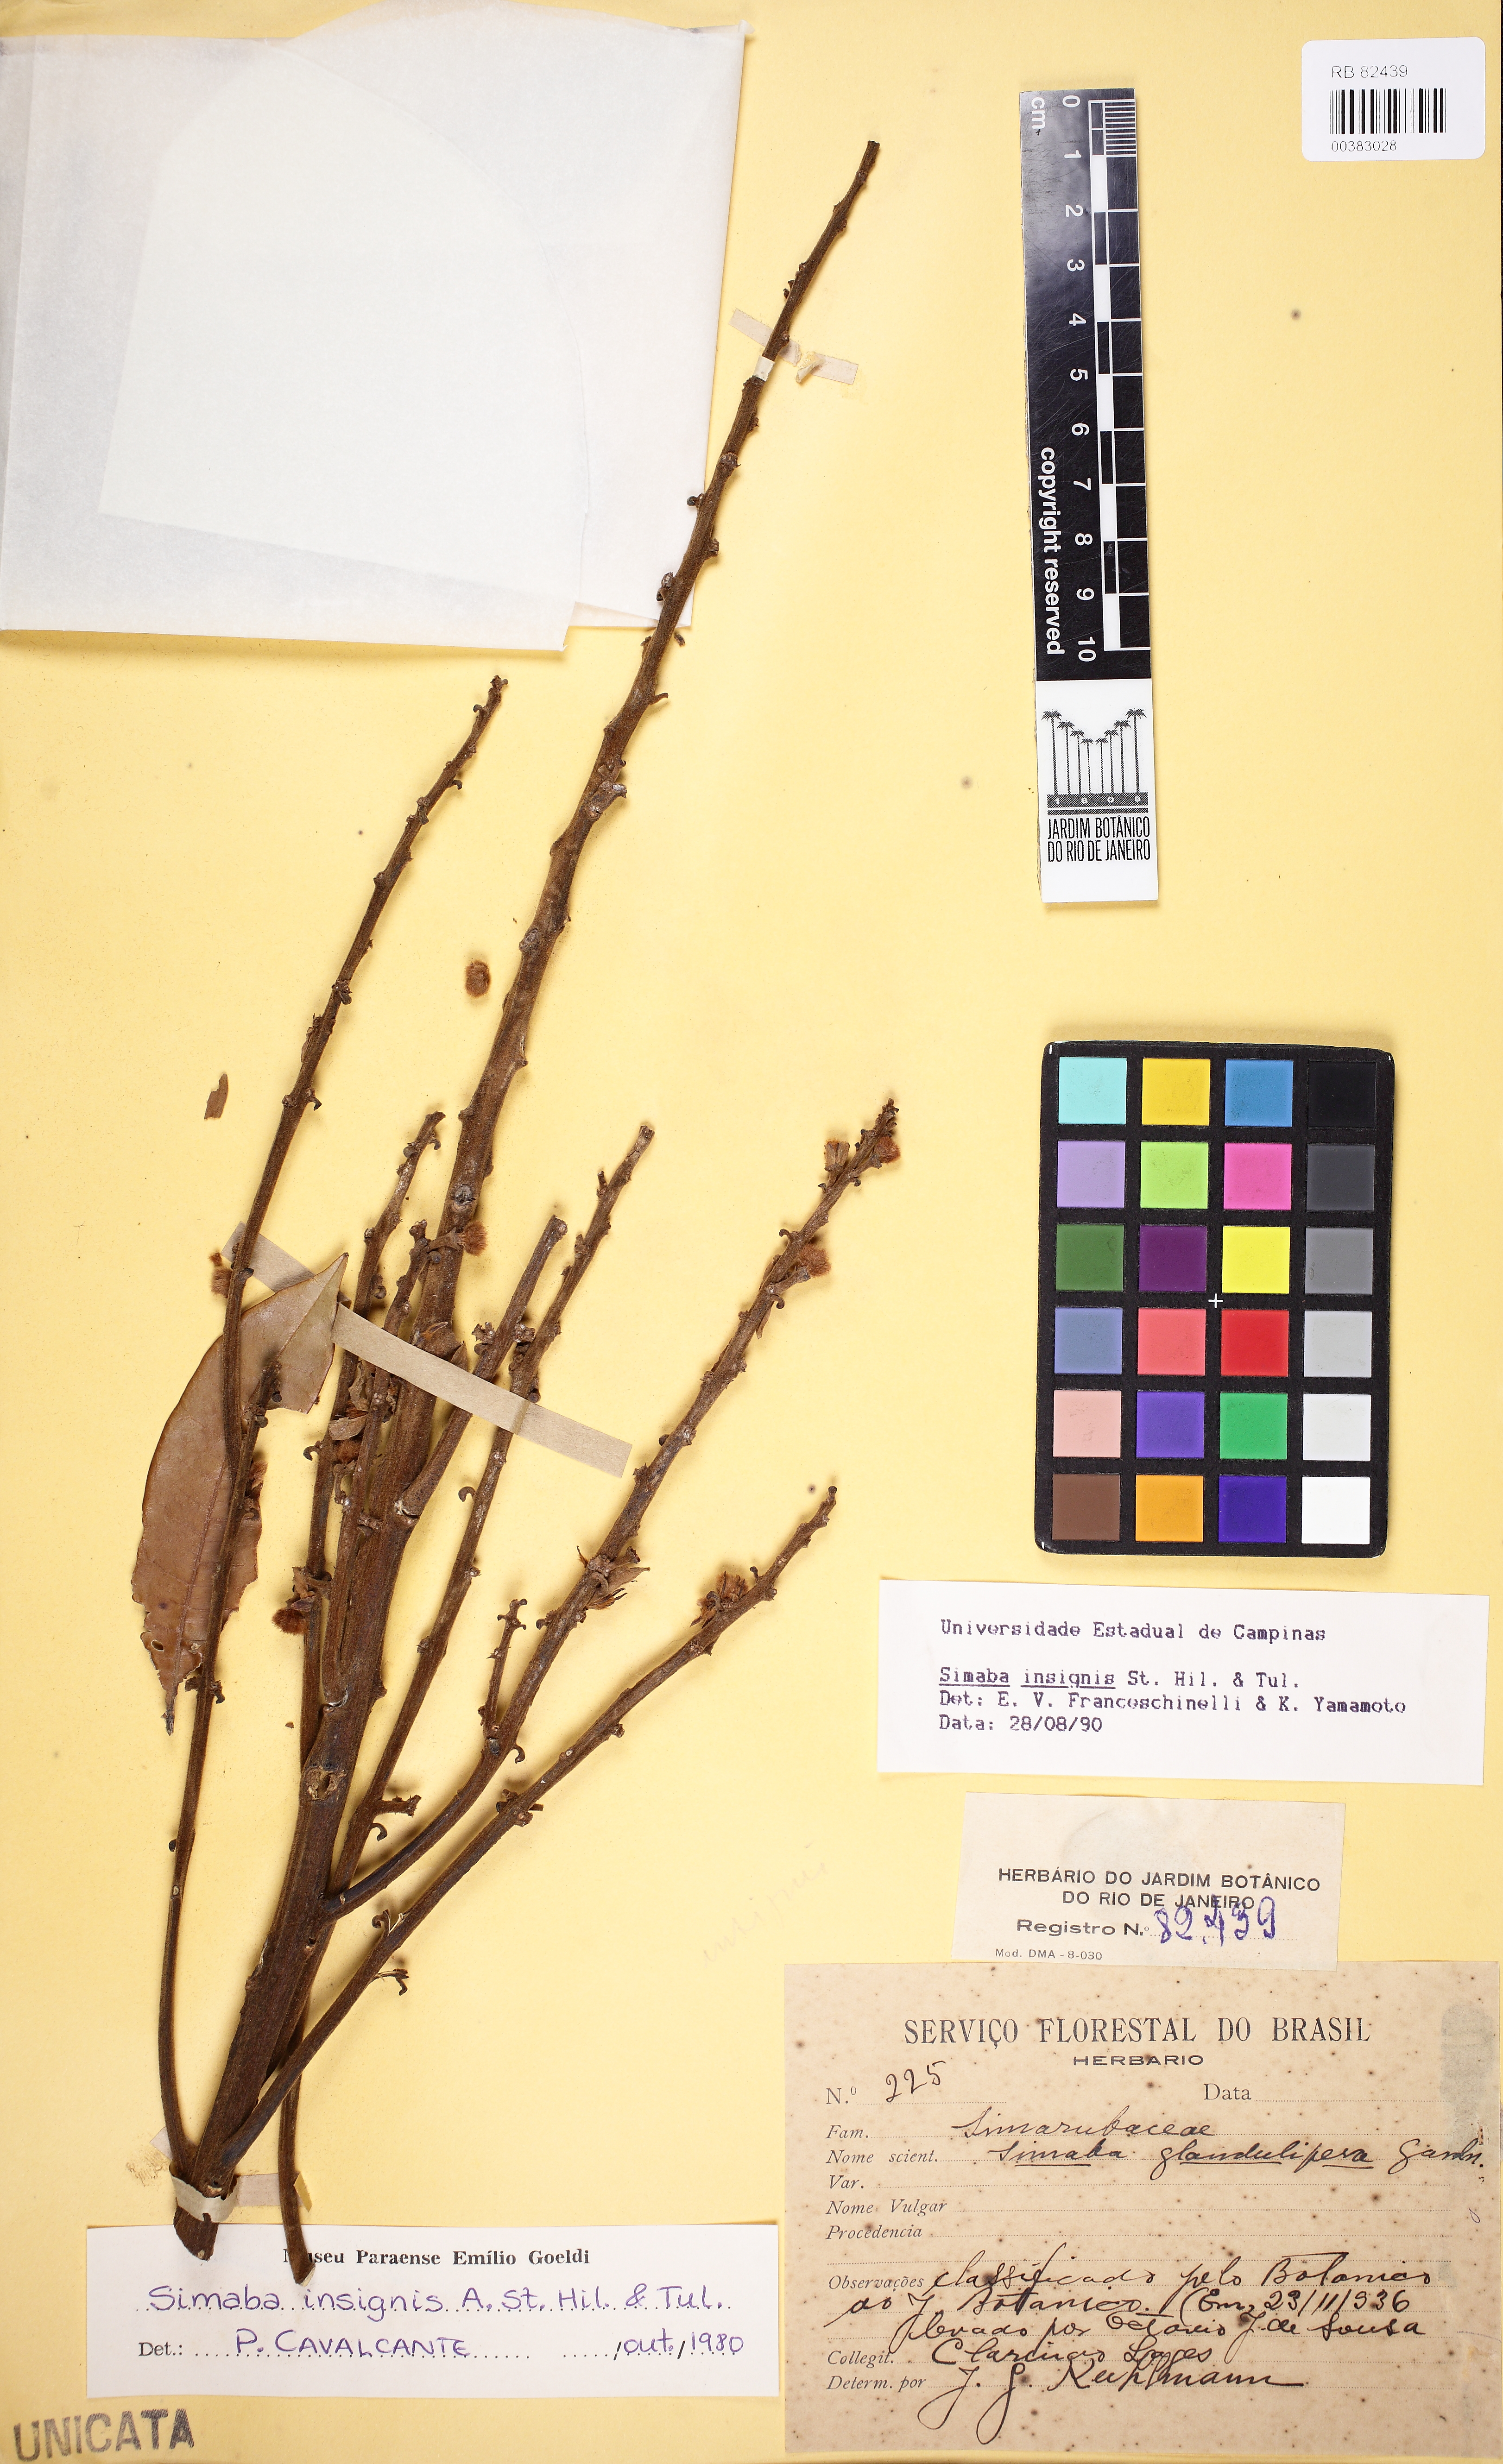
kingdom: Plantae
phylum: Tracheophyta
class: Magnoliopsida
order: Sapindales
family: Simaroubaceae
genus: Homalolepis
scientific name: Homalolepis insignis
